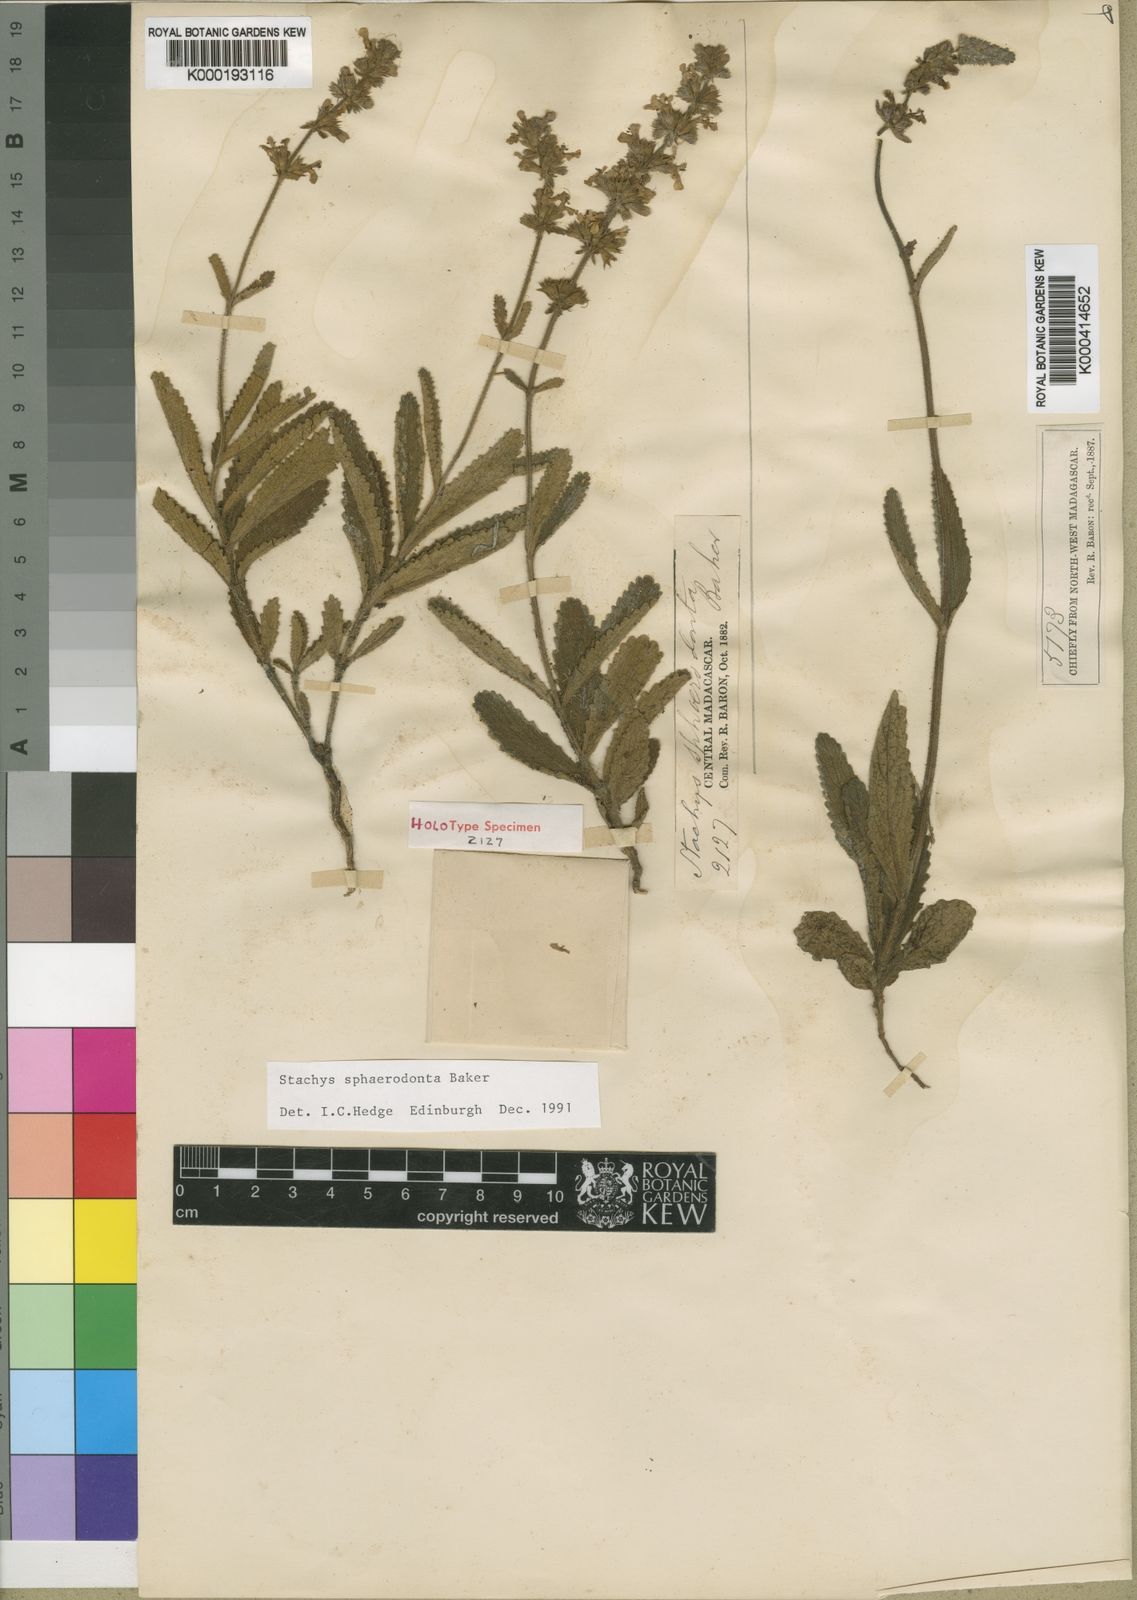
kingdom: Plantae
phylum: Tracheophyta
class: Magnoliopsida
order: Lamiales
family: Lamiaceae
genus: Stachys
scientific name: Stachys sphaerodonta
